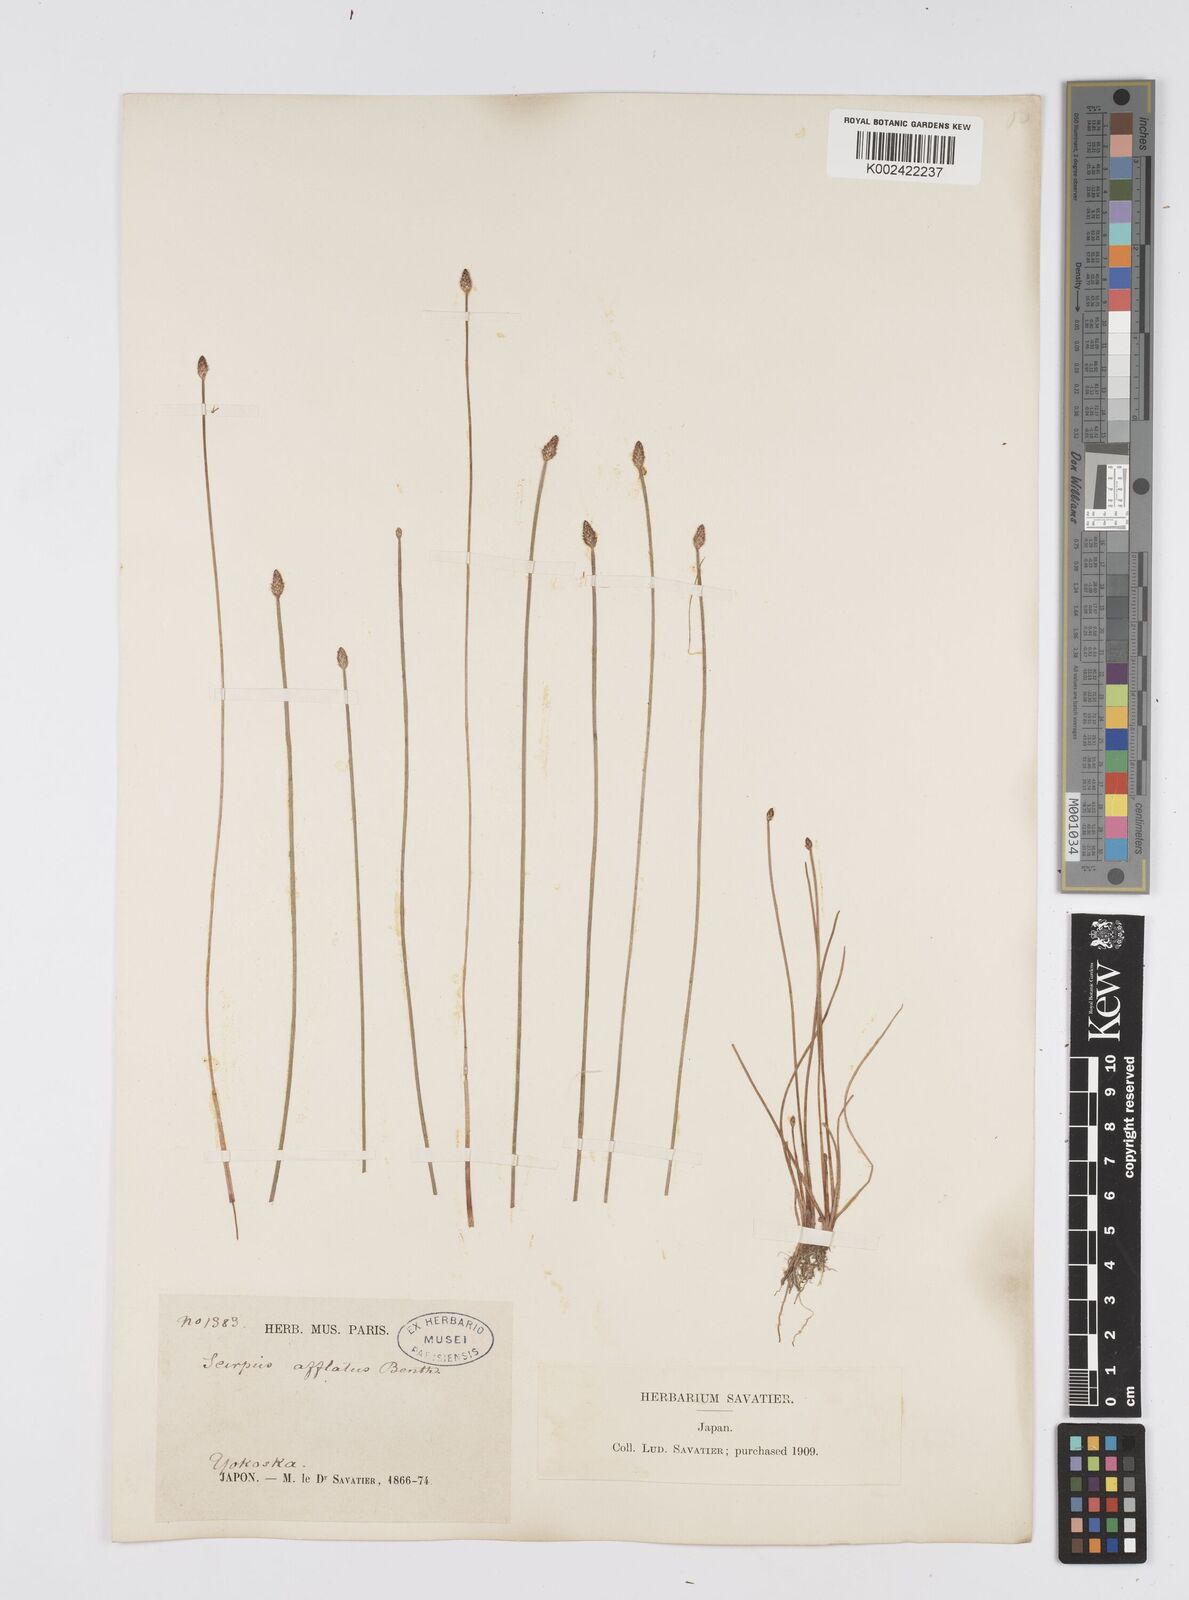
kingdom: Plantae
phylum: Tracheophyta
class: Liliopsida
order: Poales
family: Cyperaceae
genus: Eleocharis
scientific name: Eleocharis pellucida
